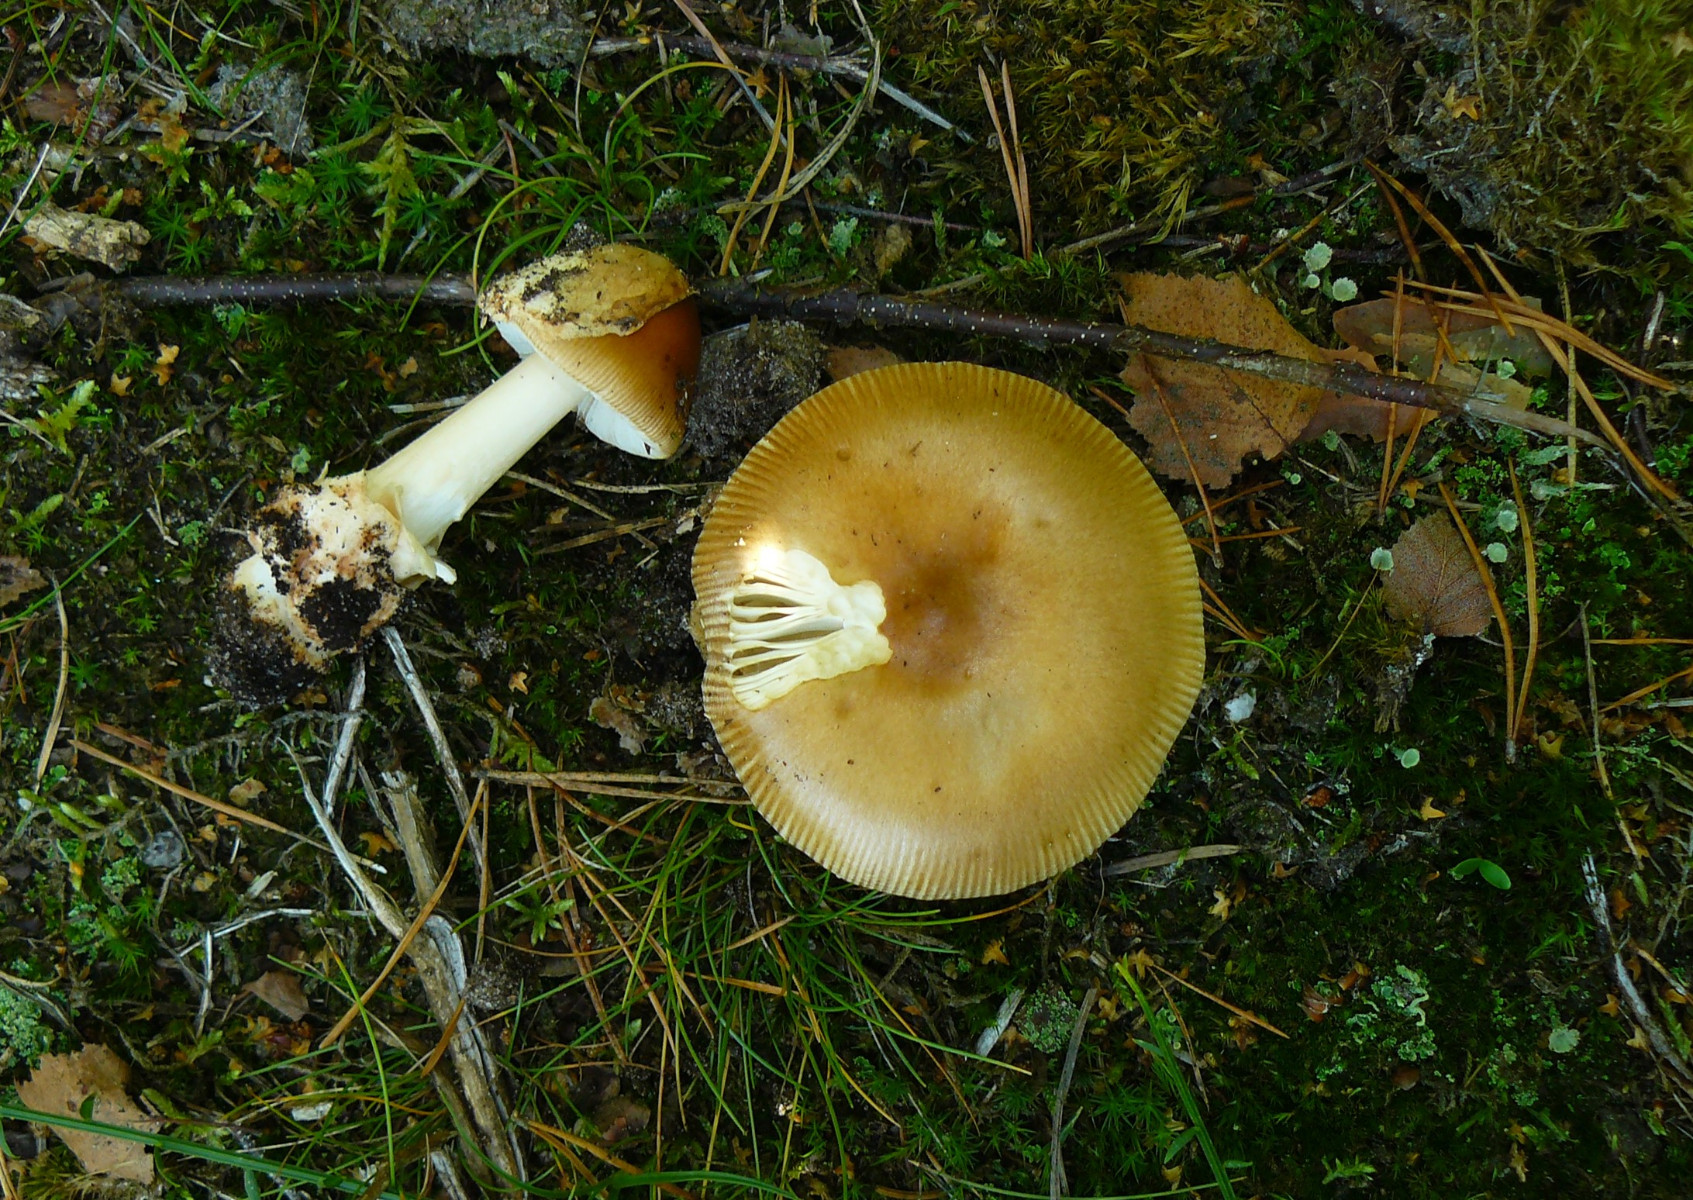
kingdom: Fungi
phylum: Basidiomycota
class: Agaricomycetes
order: Agaricales
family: Amanitaceae
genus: Amanita
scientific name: Amanita fulva
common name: brun kam-fluesvamp
